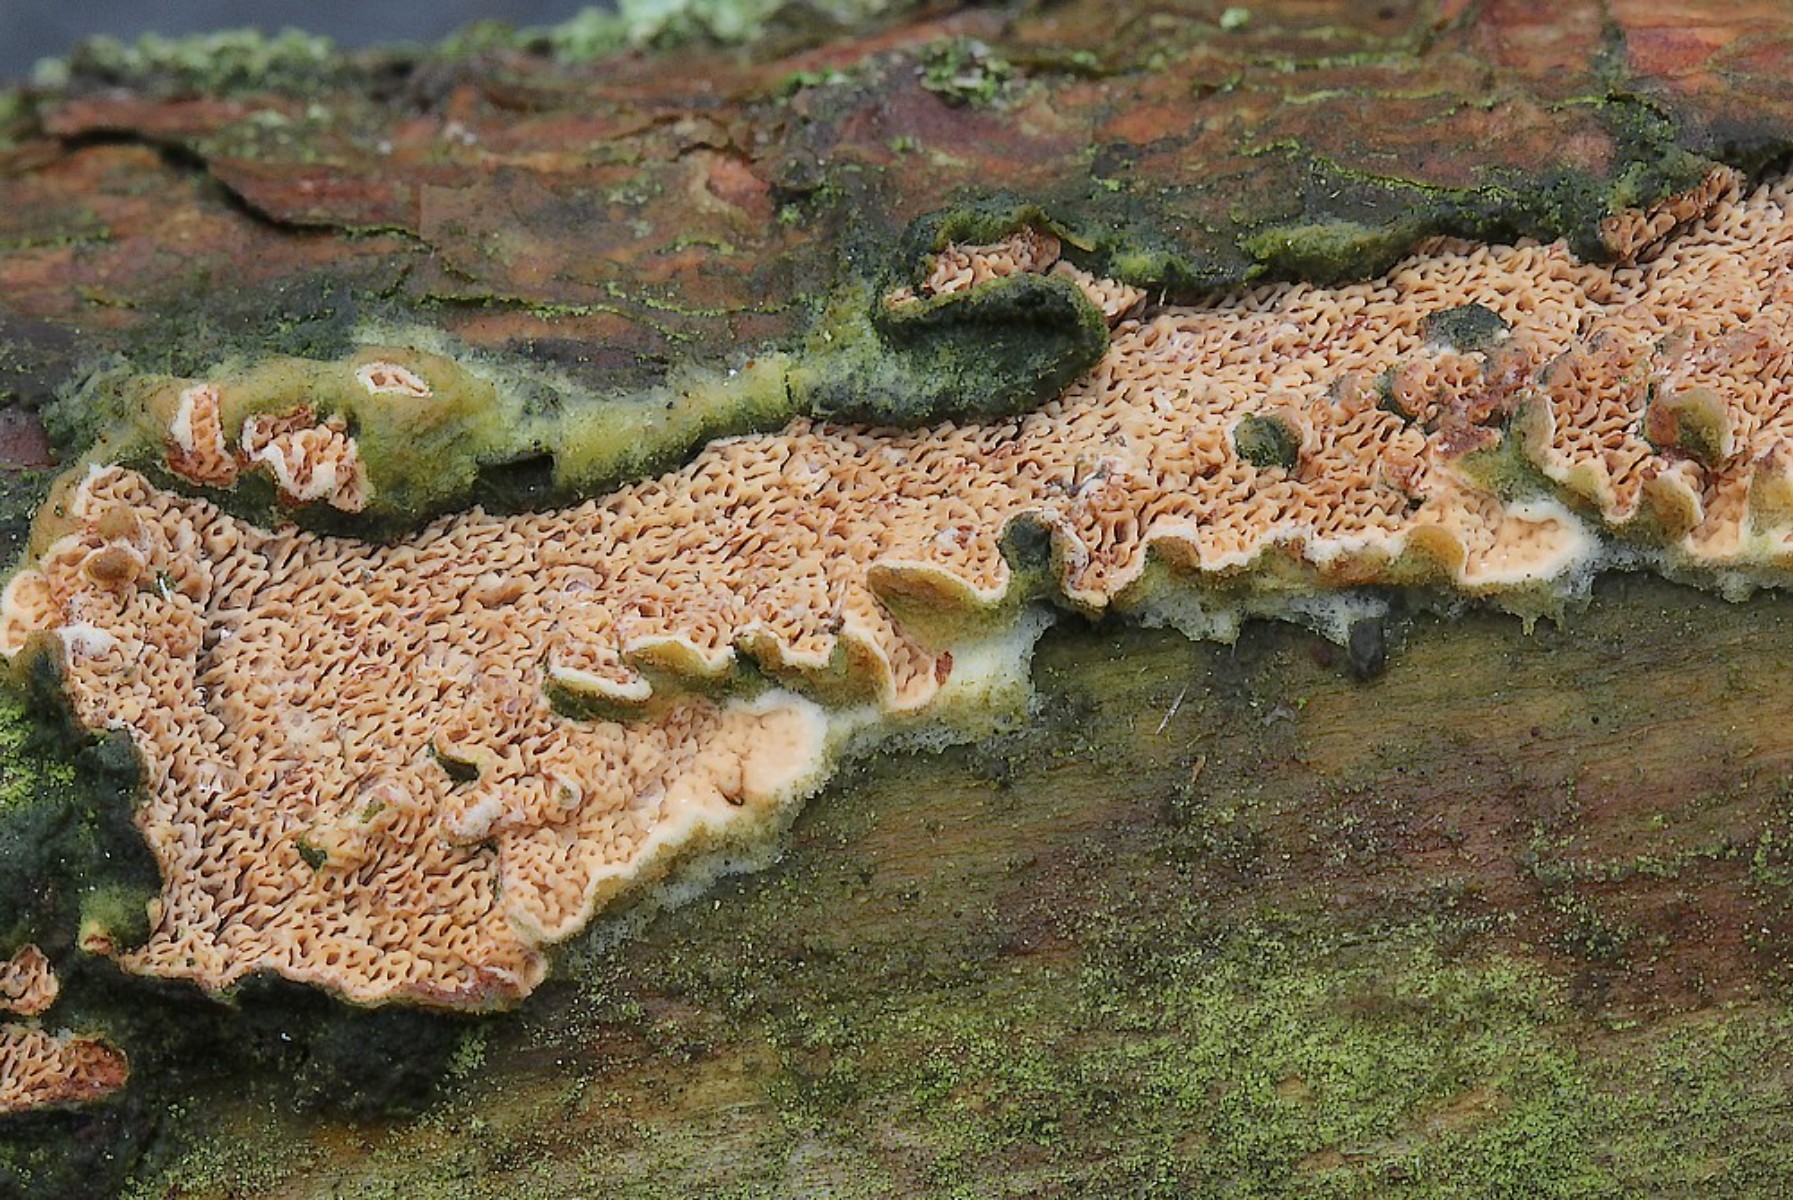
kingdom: Fungi
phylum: Basidiomycota
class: Agaricomycetes
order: Polyporales
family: Irpicaceae
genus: Meruliopsis
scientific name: Meruliopsis taxicola
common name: purpurbrun foldporesvamp
